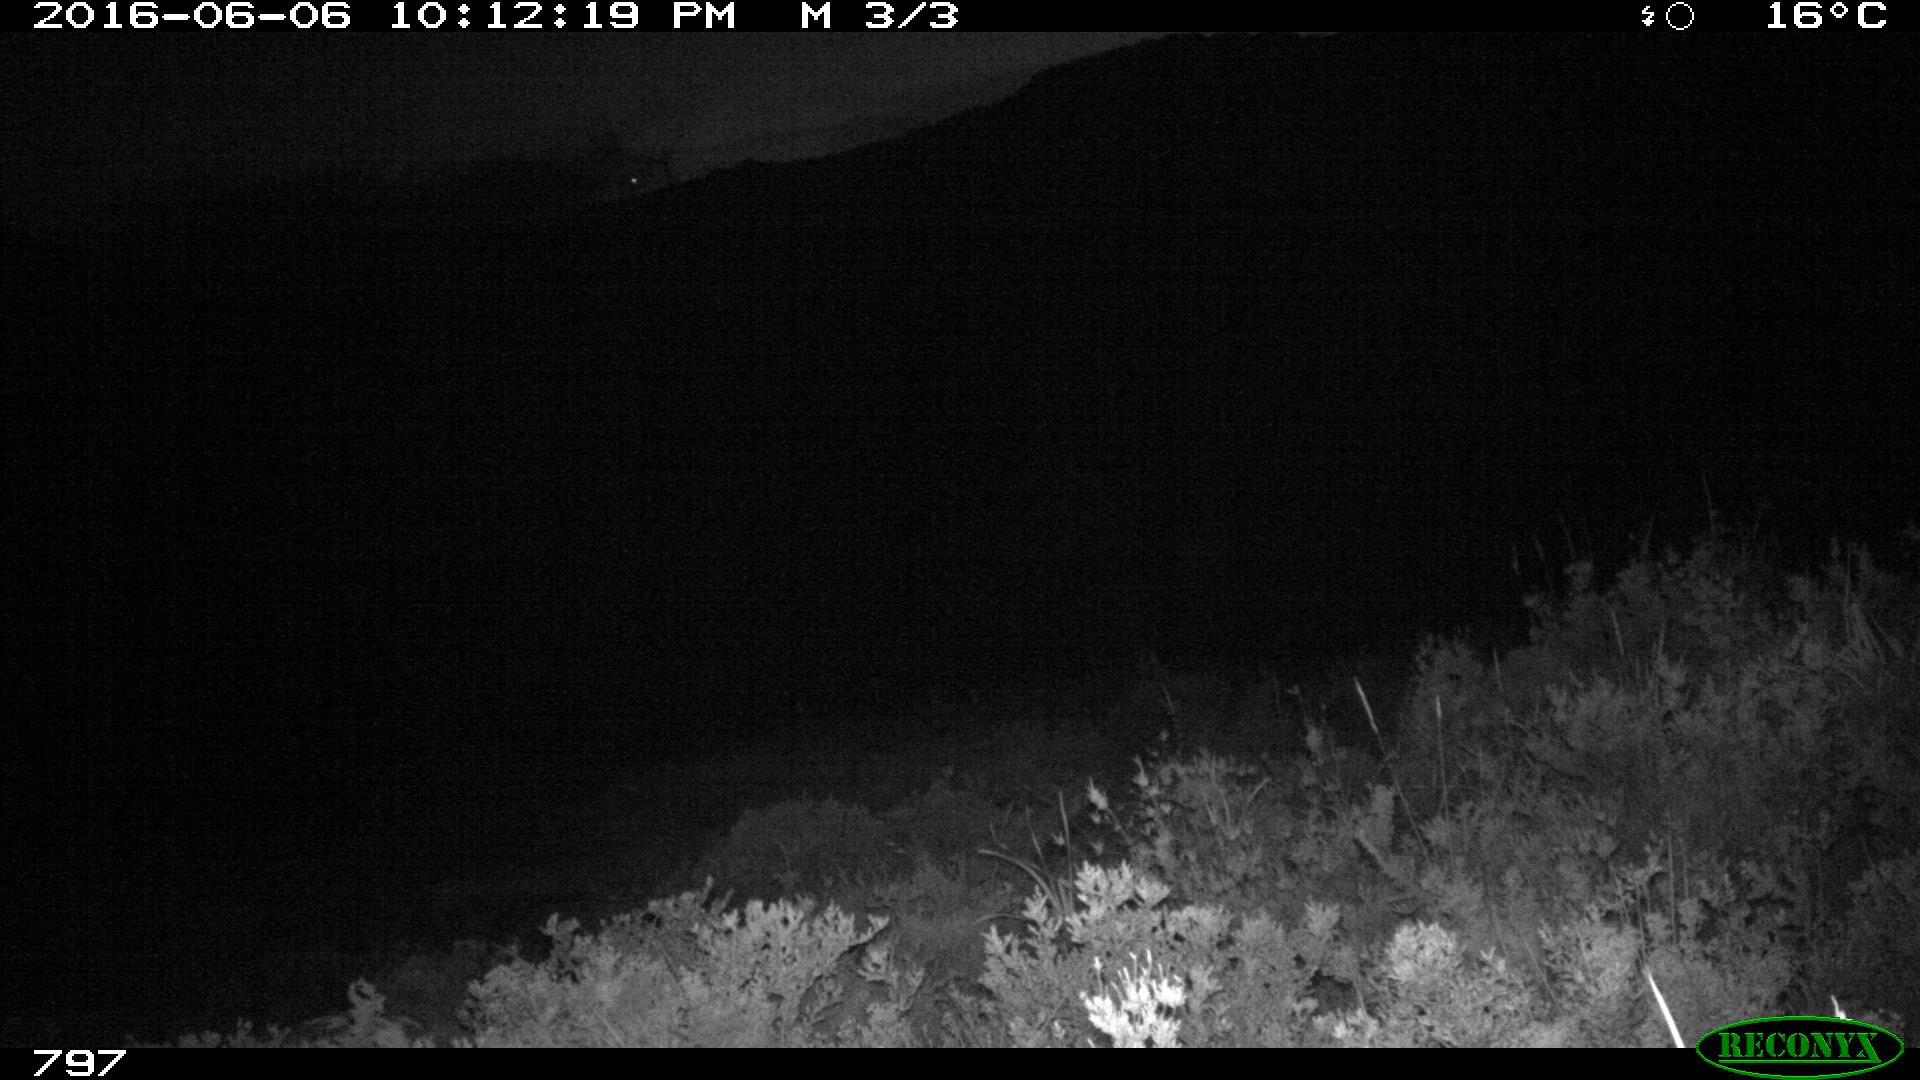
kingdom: Animalia
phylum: Chordata
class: Mammalia
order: Artiodactyla
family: Cervidae
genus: Capreolus
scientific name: Capreolus capreolus
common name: Western roe deer
